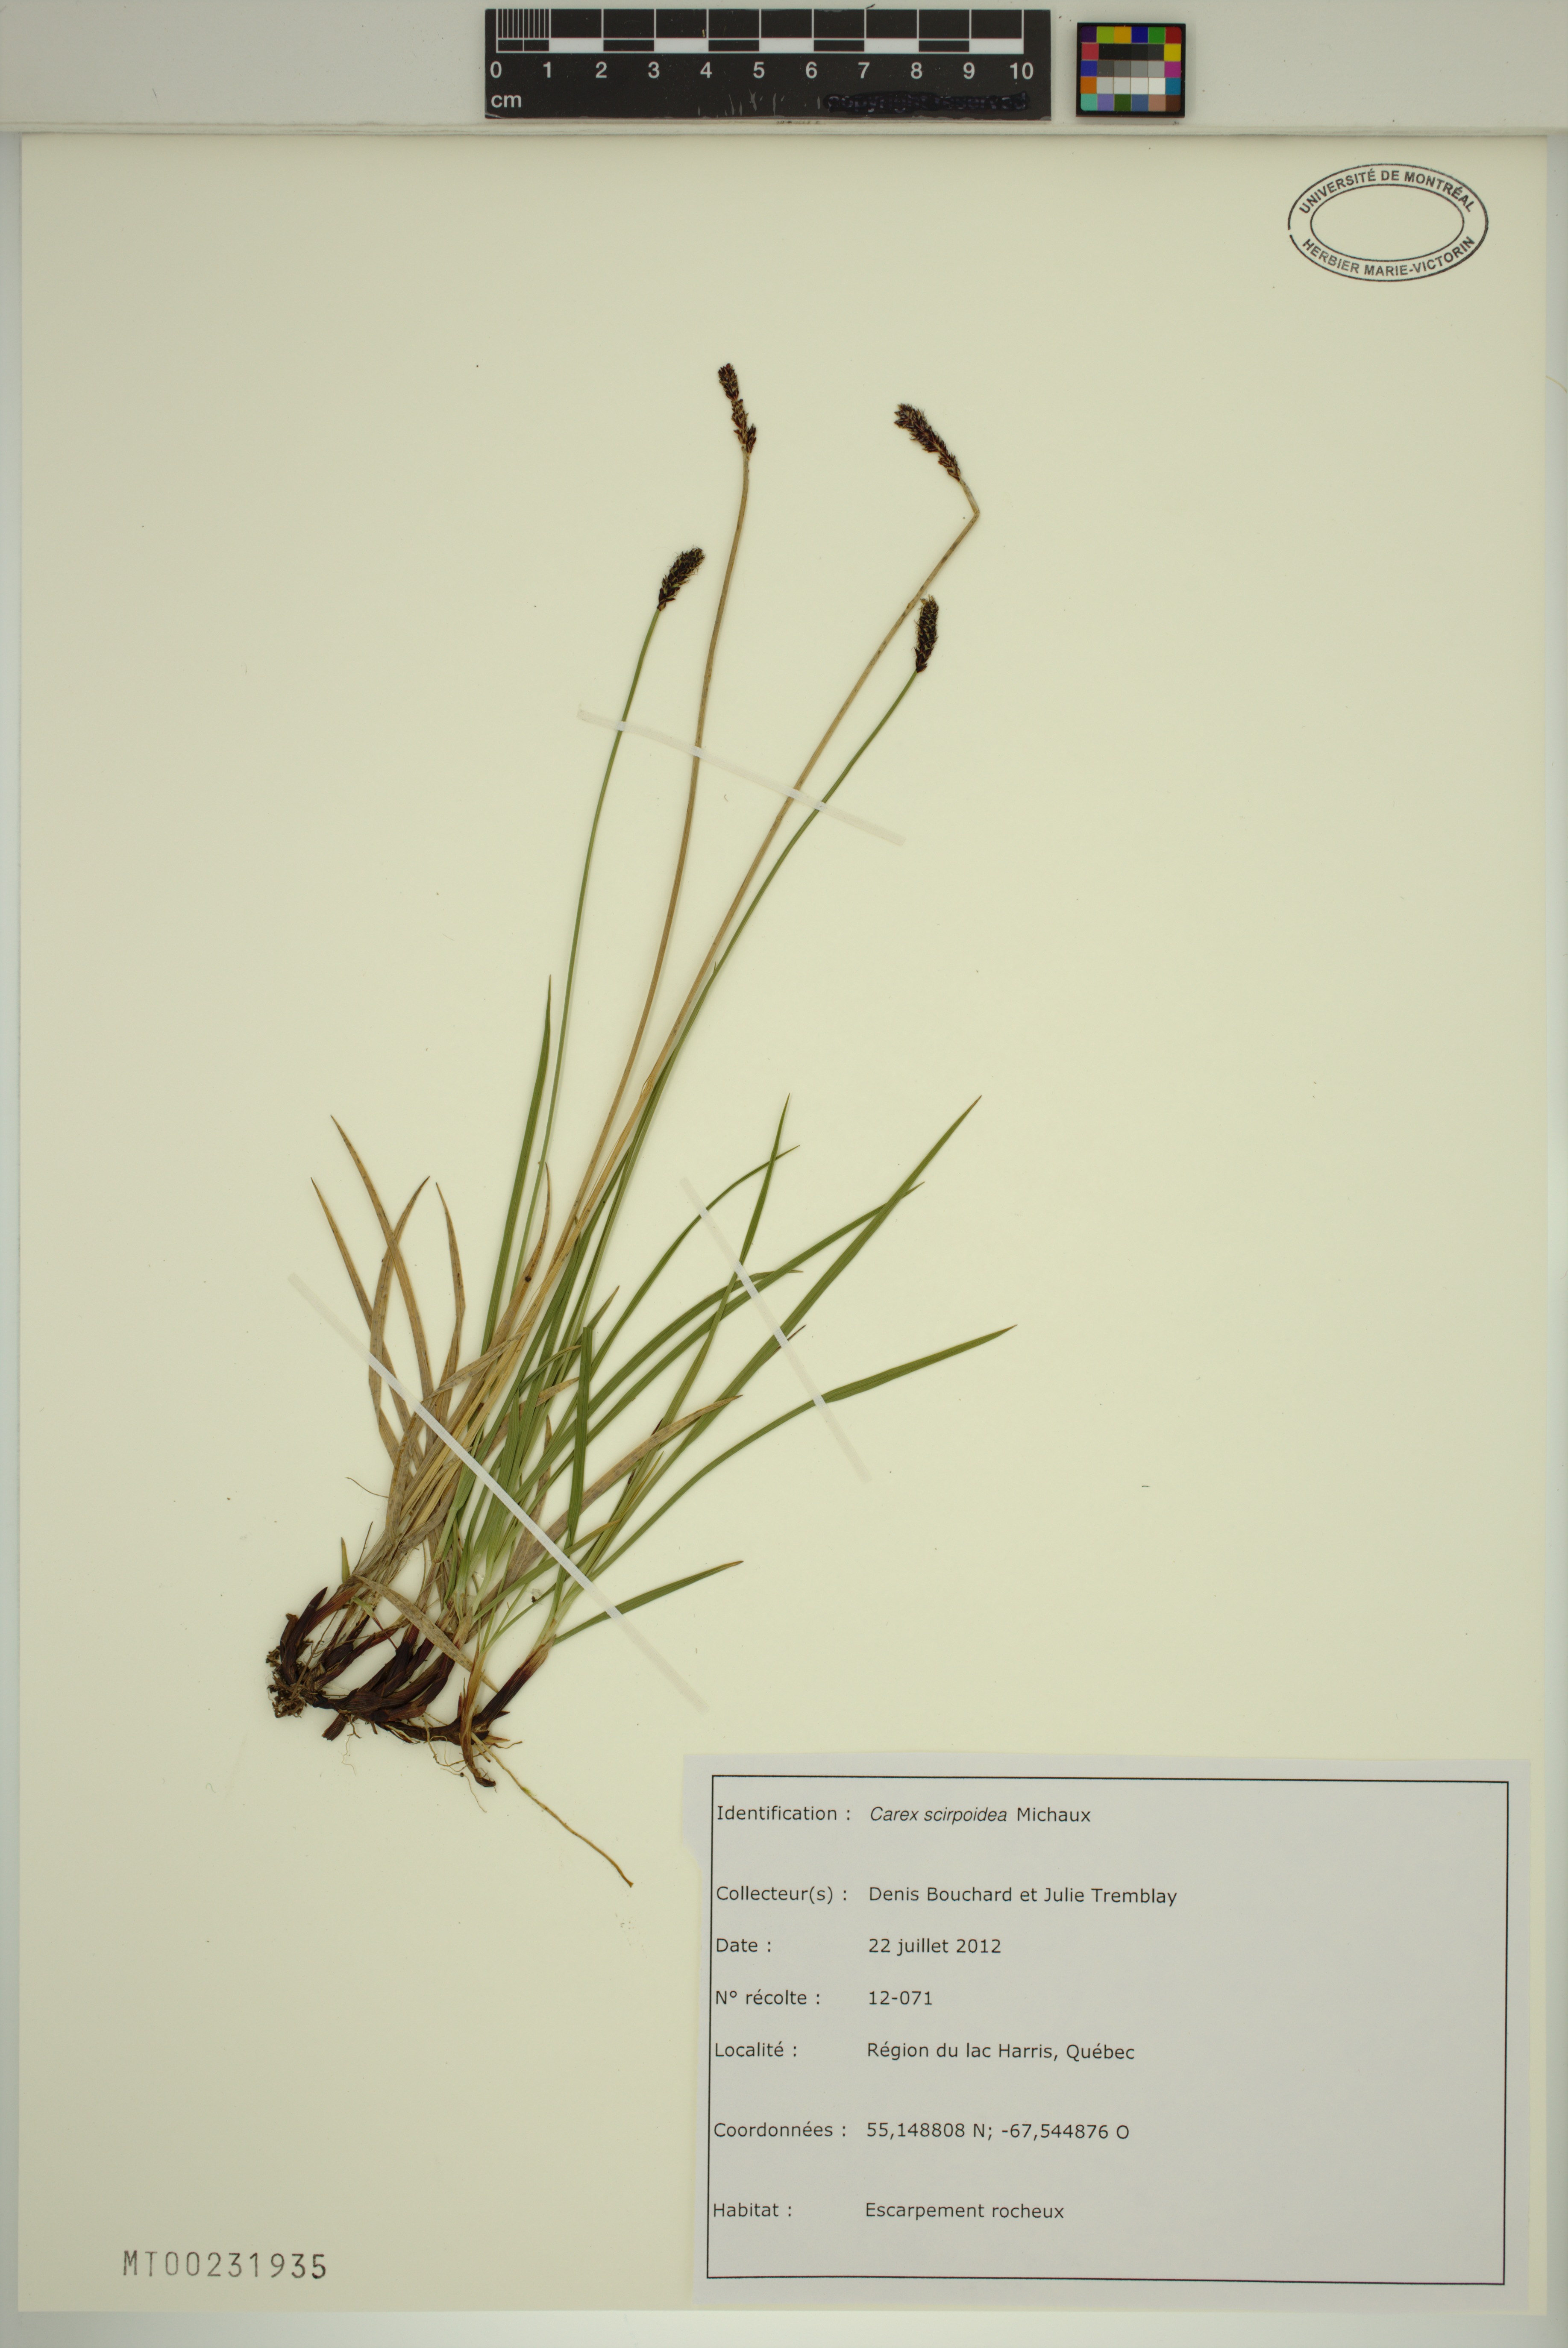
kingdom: Plantae
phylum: Tracheophyta
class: Liliopsida
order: Poales
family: Cyperaceae
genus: Carex
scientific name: Carex scirpoidea
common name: Canada single-spike sedge
